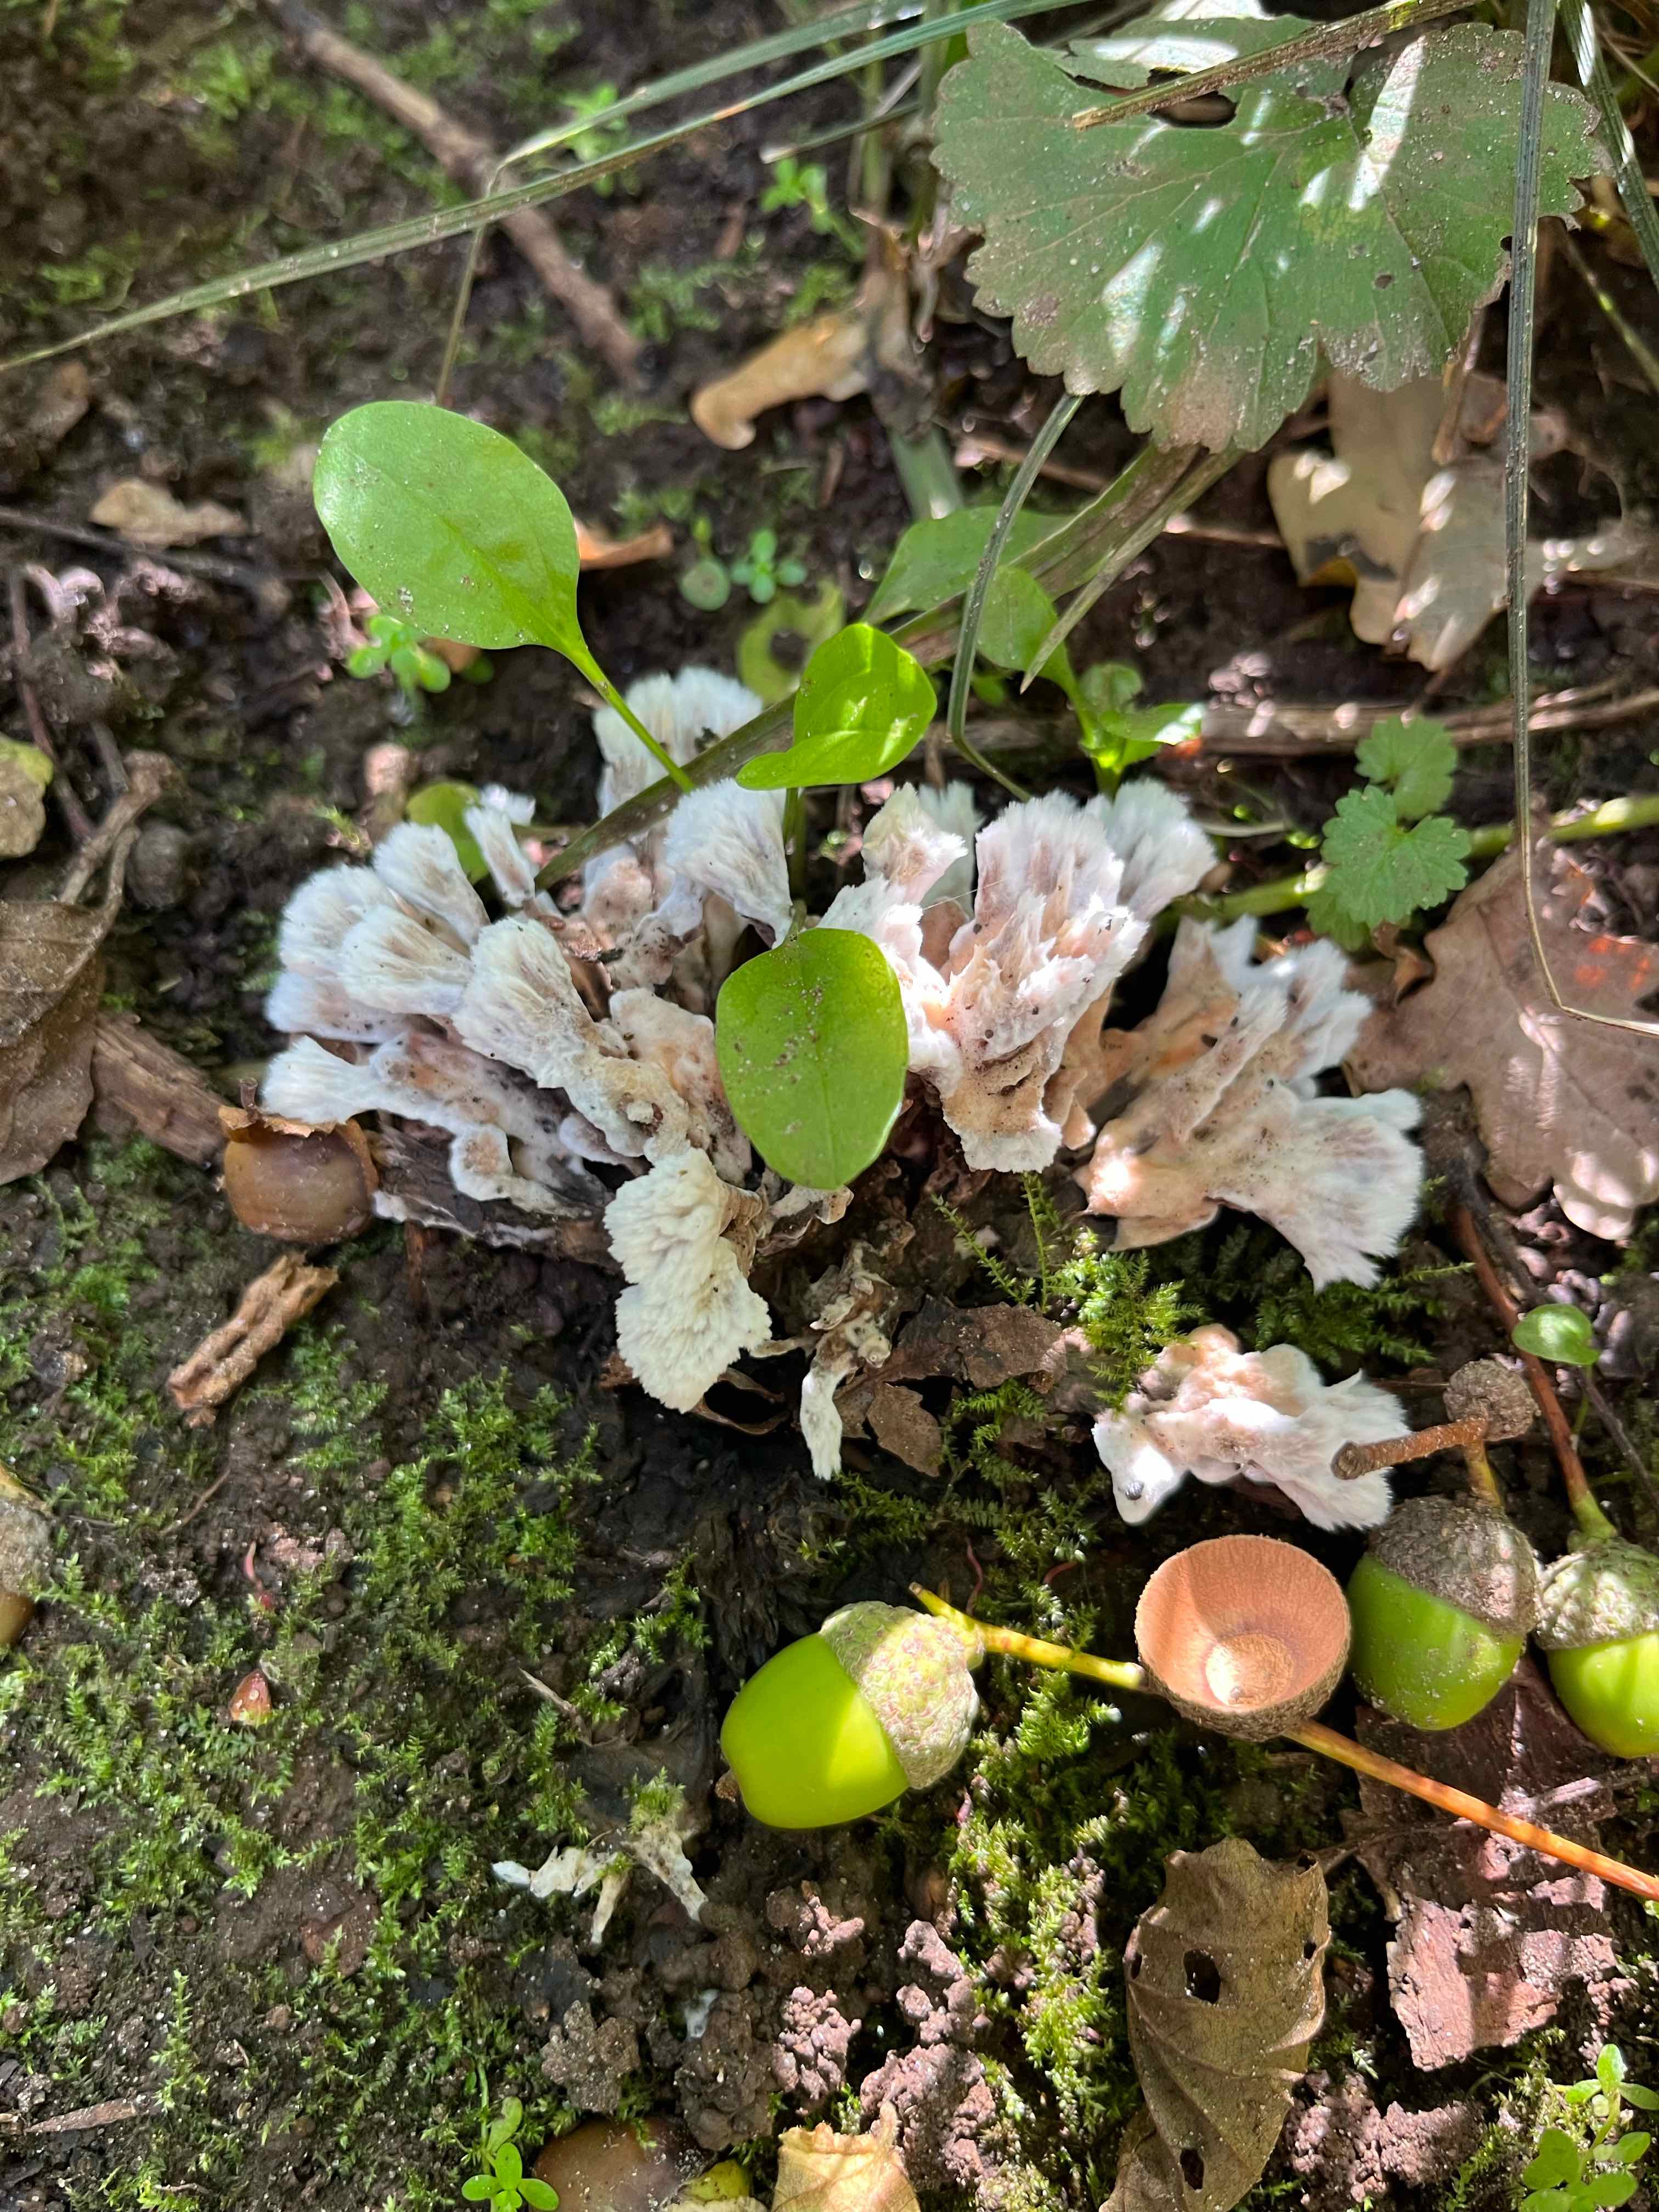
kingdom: Fungi
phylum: Basidiomycota
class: Agaricomycetes
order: Thelephorales
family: Thelephoraceae
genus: Thelephora
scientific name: Thelephora penicillata
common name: fladtrådt frynsesvamp
